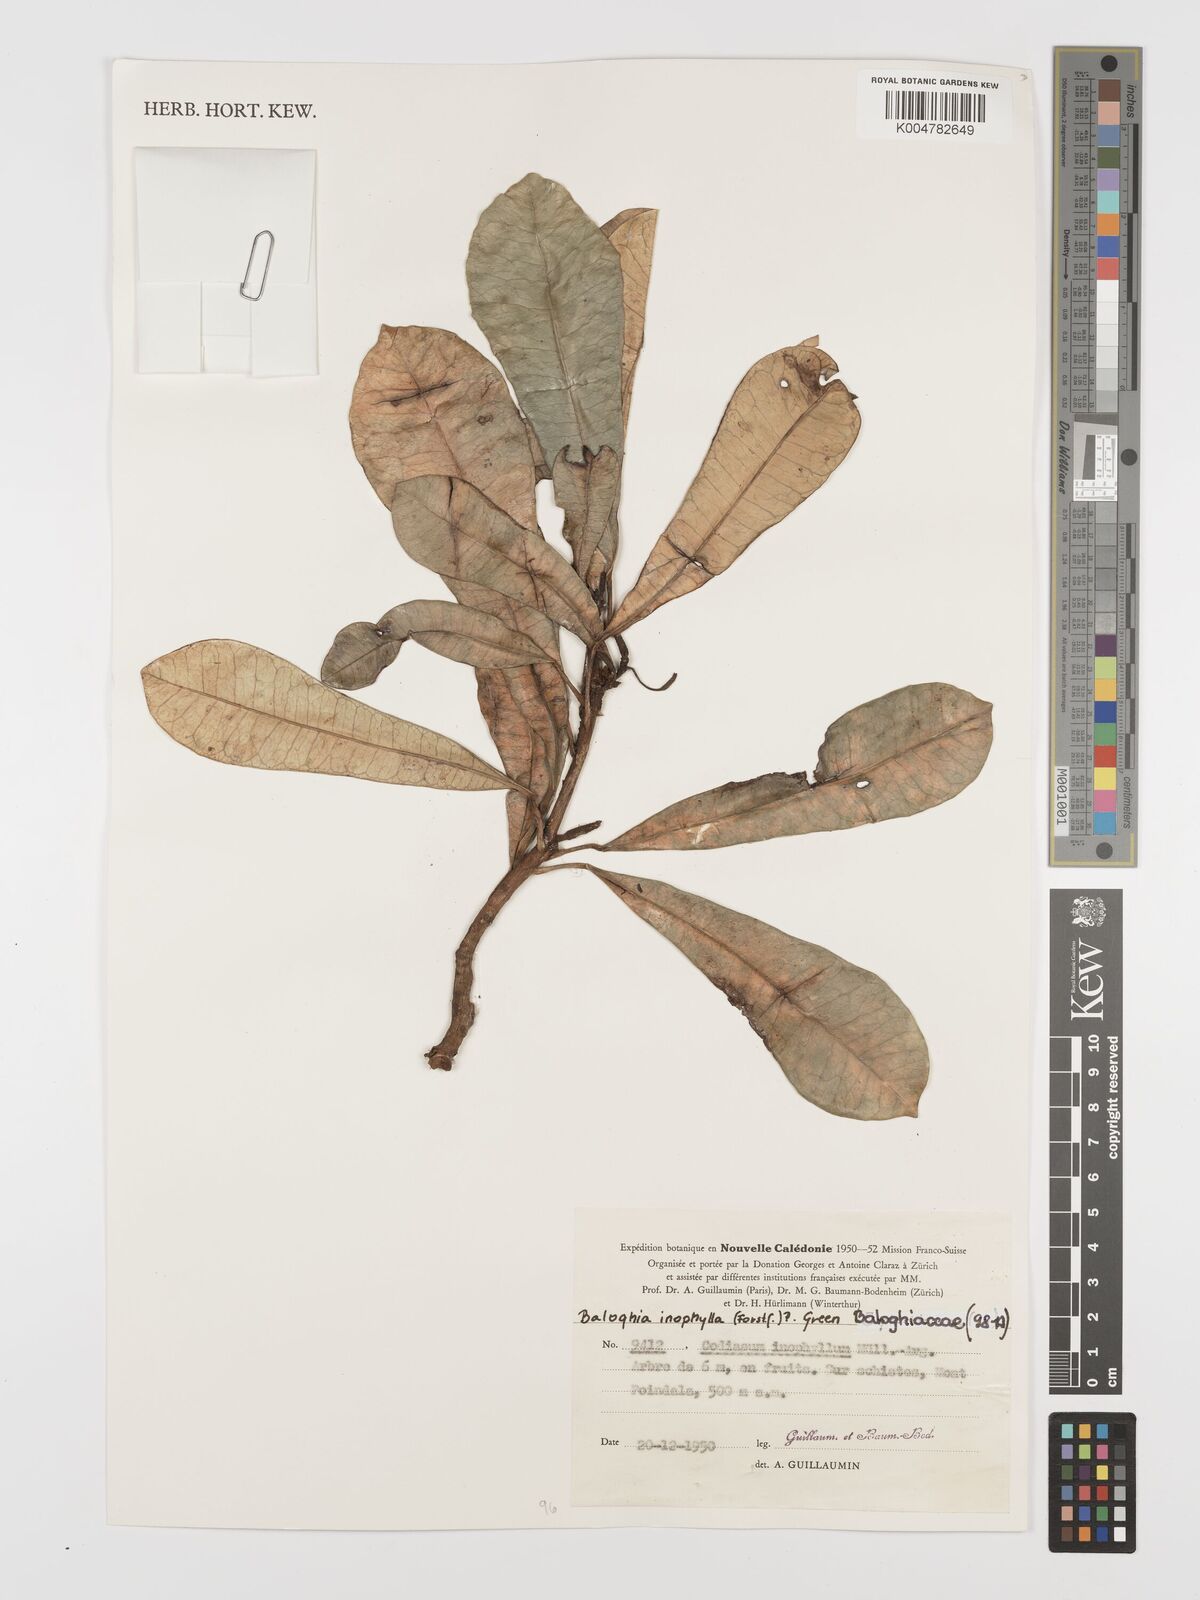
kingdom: Plantae
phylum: Tracheophyta
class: Magnoliopsida
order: Malpighiales
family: Euphorbiaceae
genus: Baloghia
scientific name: Baloghia inophylla
